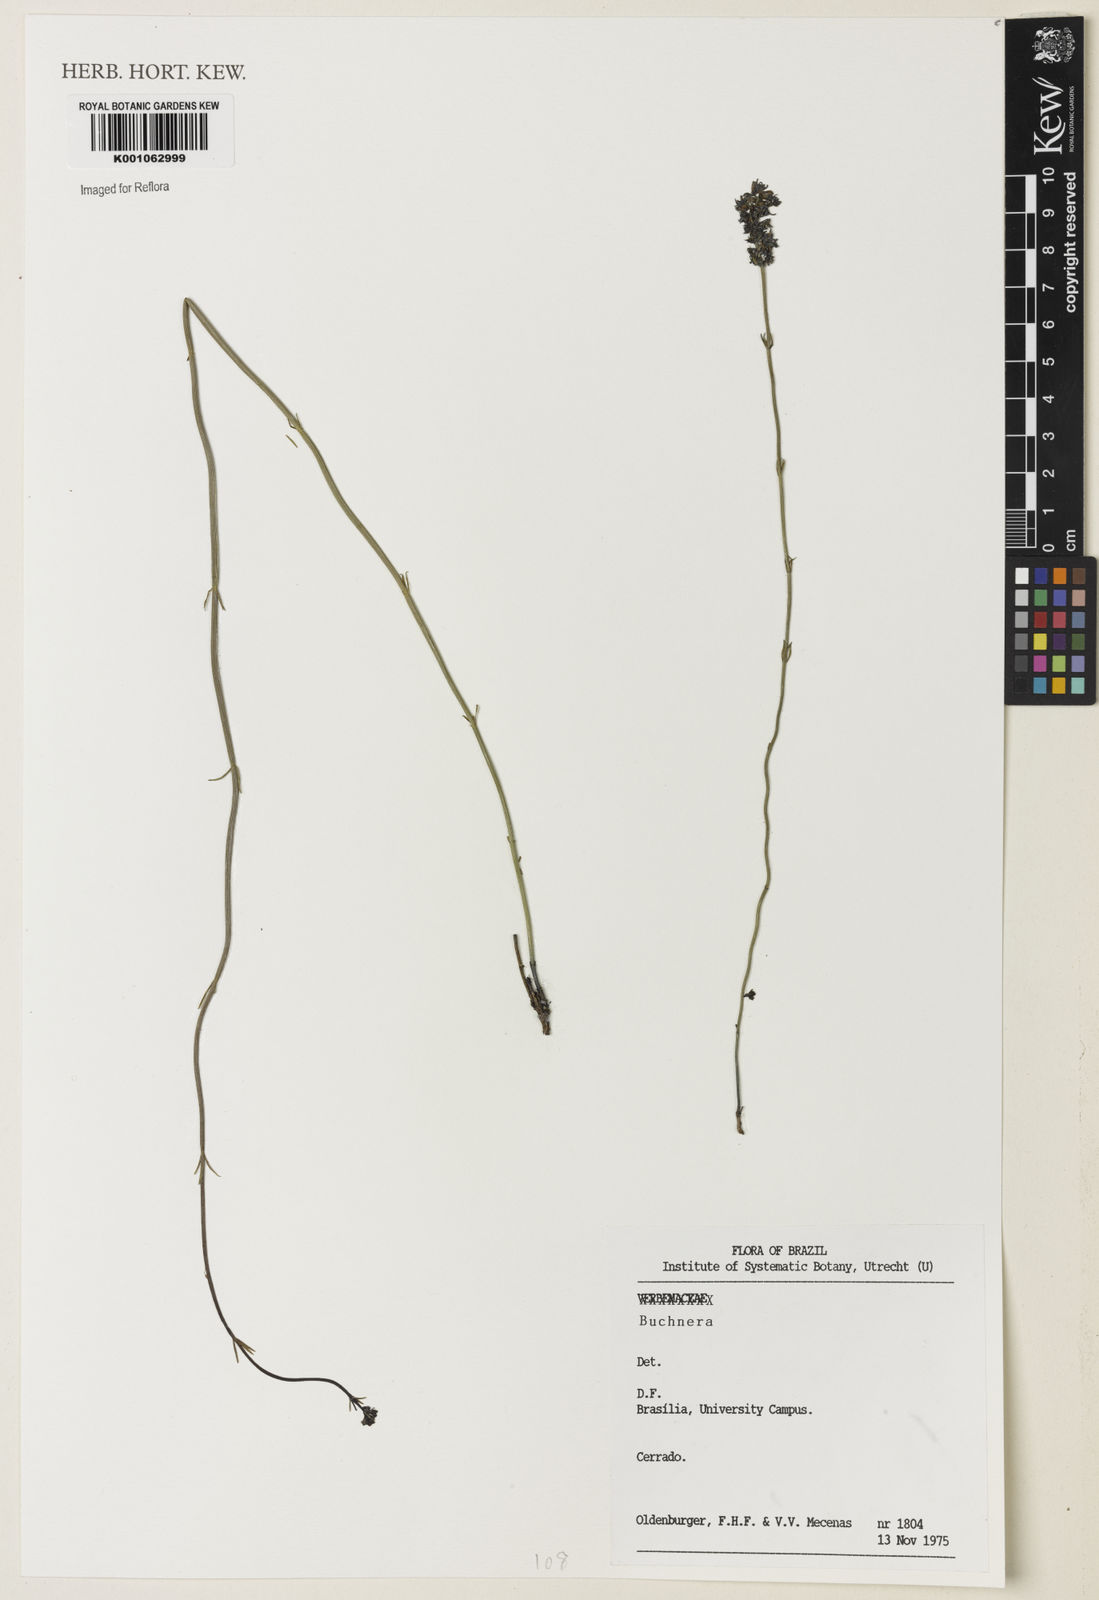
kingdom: Plantae
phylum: Tracheophyta
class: Magnoliopsida
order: Gentianales
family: Loganiaceae
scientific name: Loganiaceae
